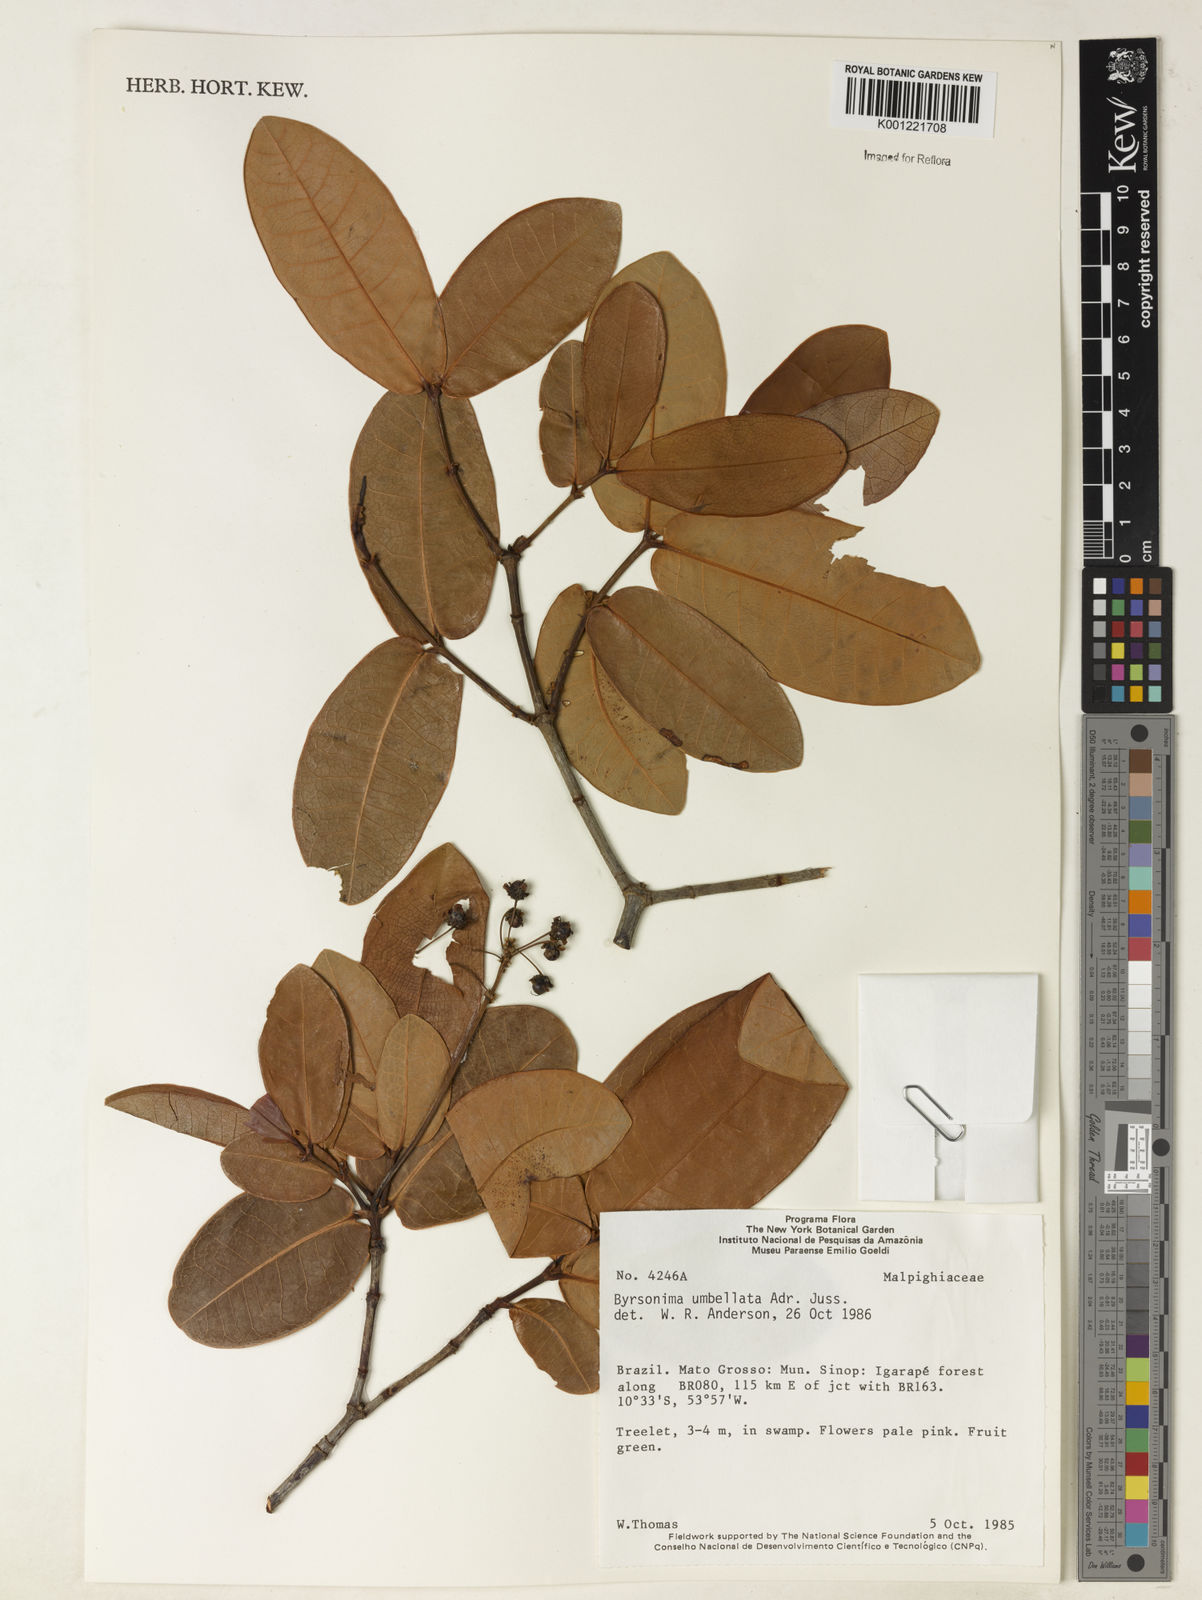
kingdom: Plantae
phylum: Tracheophyta
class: Magnoliopsida
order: Malpighiales
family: Malpighiaceae
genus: Byrsonima
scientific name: Byrsonima umbellata
